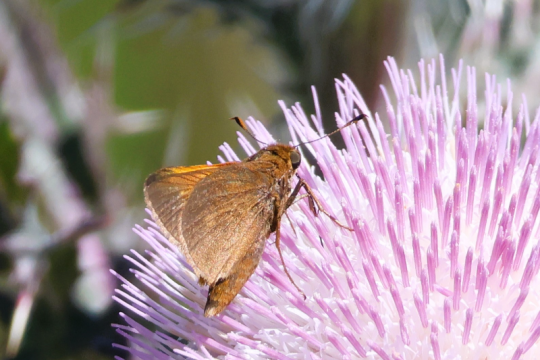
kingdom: Animalia
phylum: Arthropoda
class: Insecta
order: Lepidoptera
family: Hesperiidae
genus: Euphyes
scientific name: Euphyes pilatka
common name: Palatka Skipper
